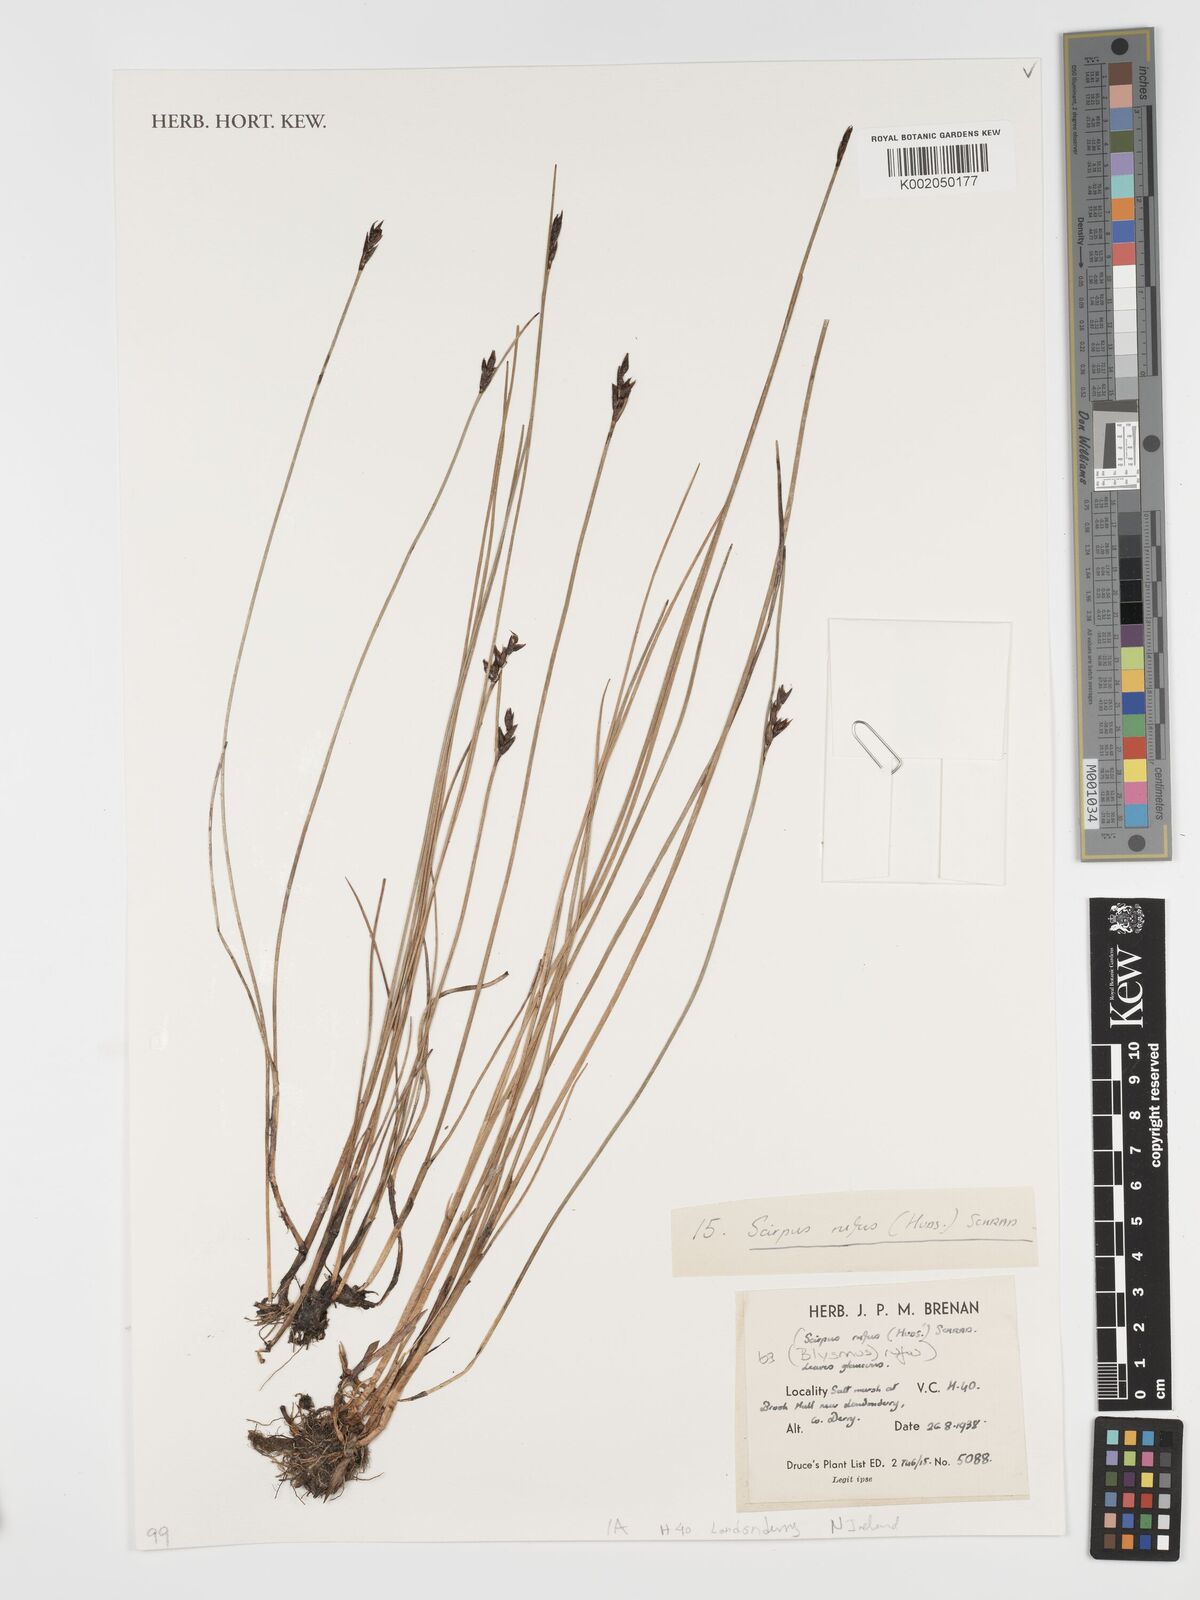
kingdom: Plantae
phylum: Tracheophyta
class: Liliopsida
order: Poales
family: Cyperaceae
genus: Blysmus
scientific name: Blysmus rufus
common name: Saltmarsh flat-sedge
